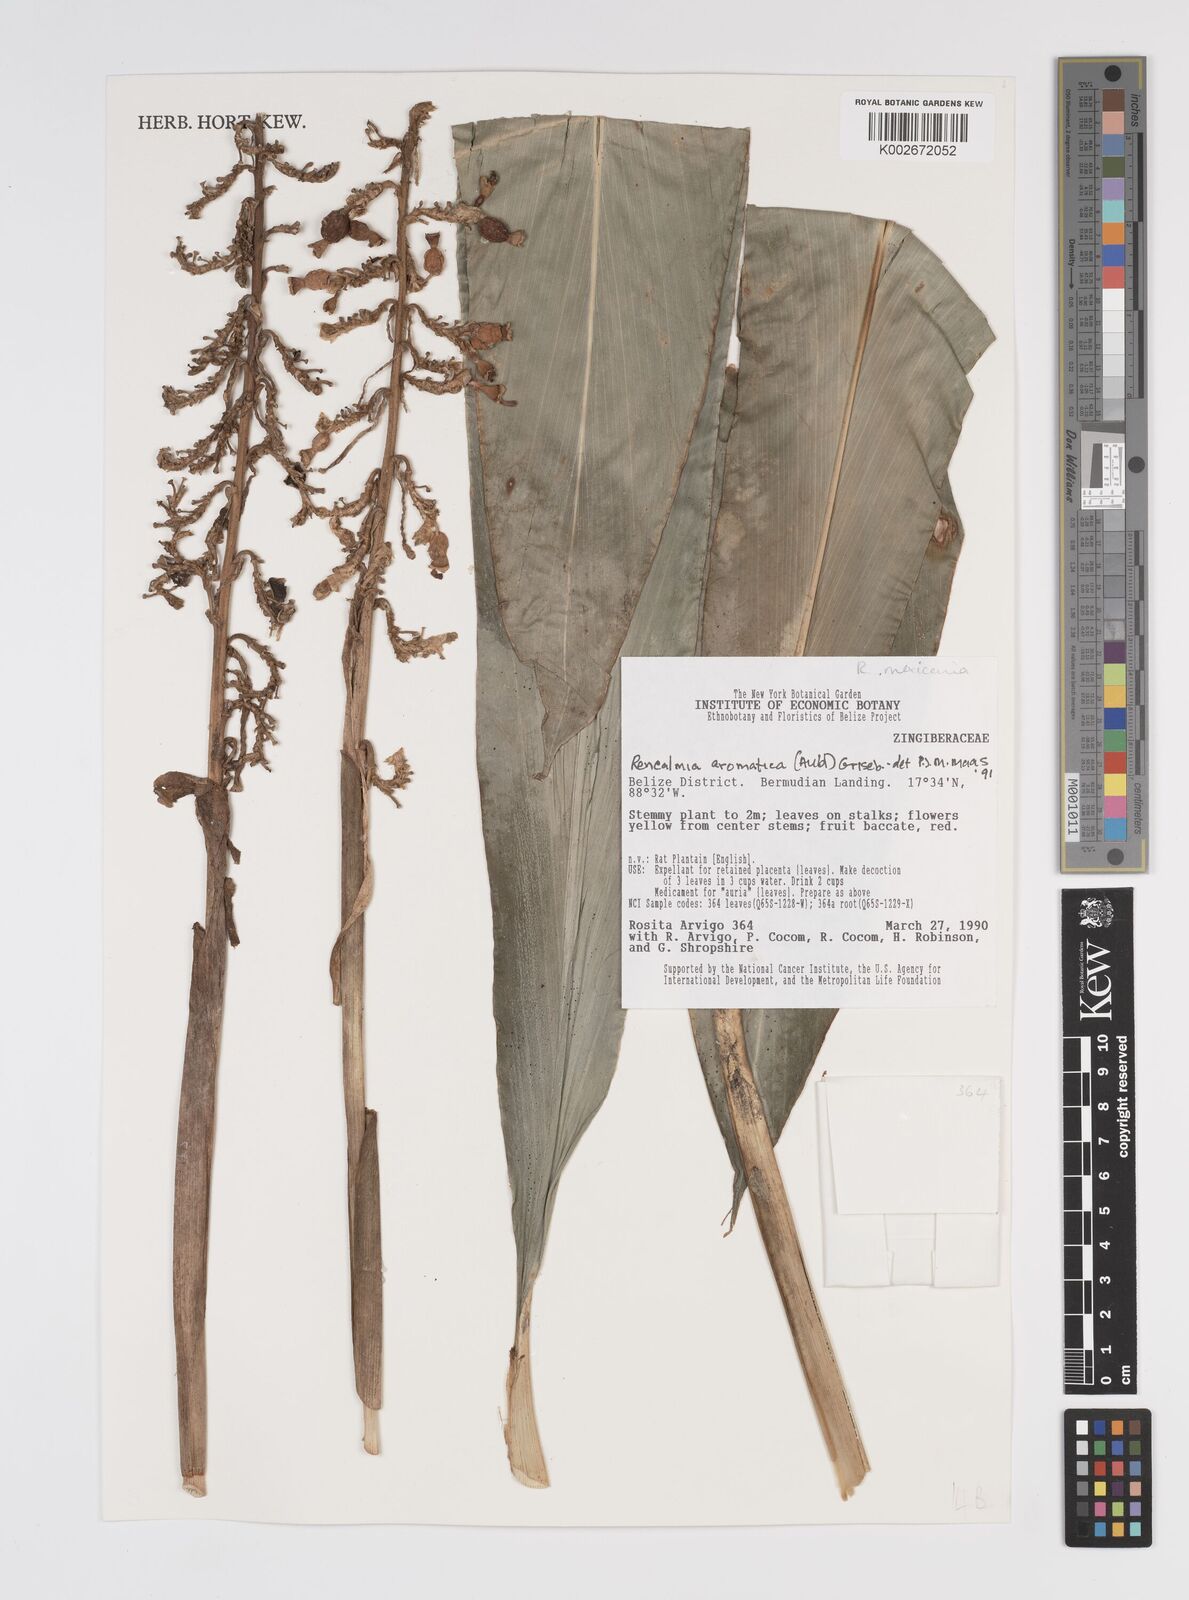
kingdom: Plantae
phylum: Tracheophyta
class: Liliopsida
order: Zingiberales
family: Zingiberaceae
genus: Renealmia
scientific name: Renealmia aromatica
